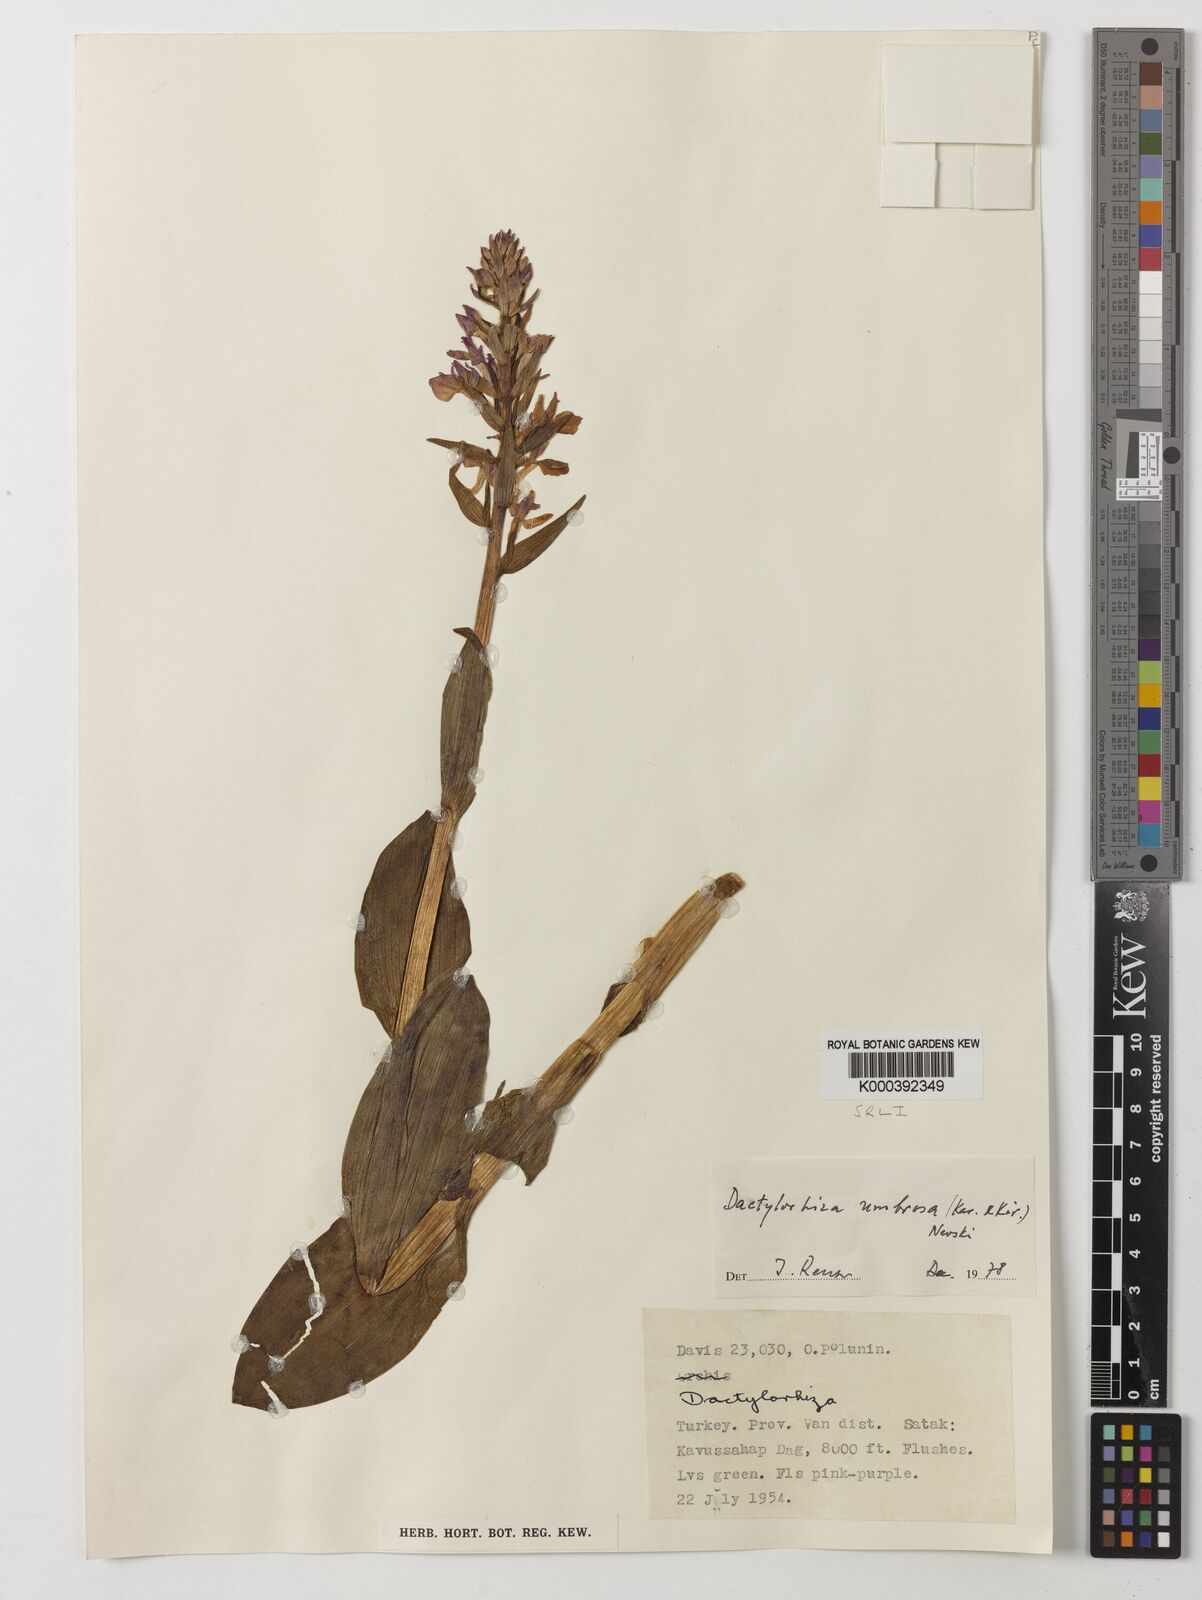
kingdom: Plantae
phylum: Tracheophyta
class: Liliopsida
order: Asparagales
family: Orchidaceae
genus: Dactylorhiza
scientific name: Dactylorhiza
